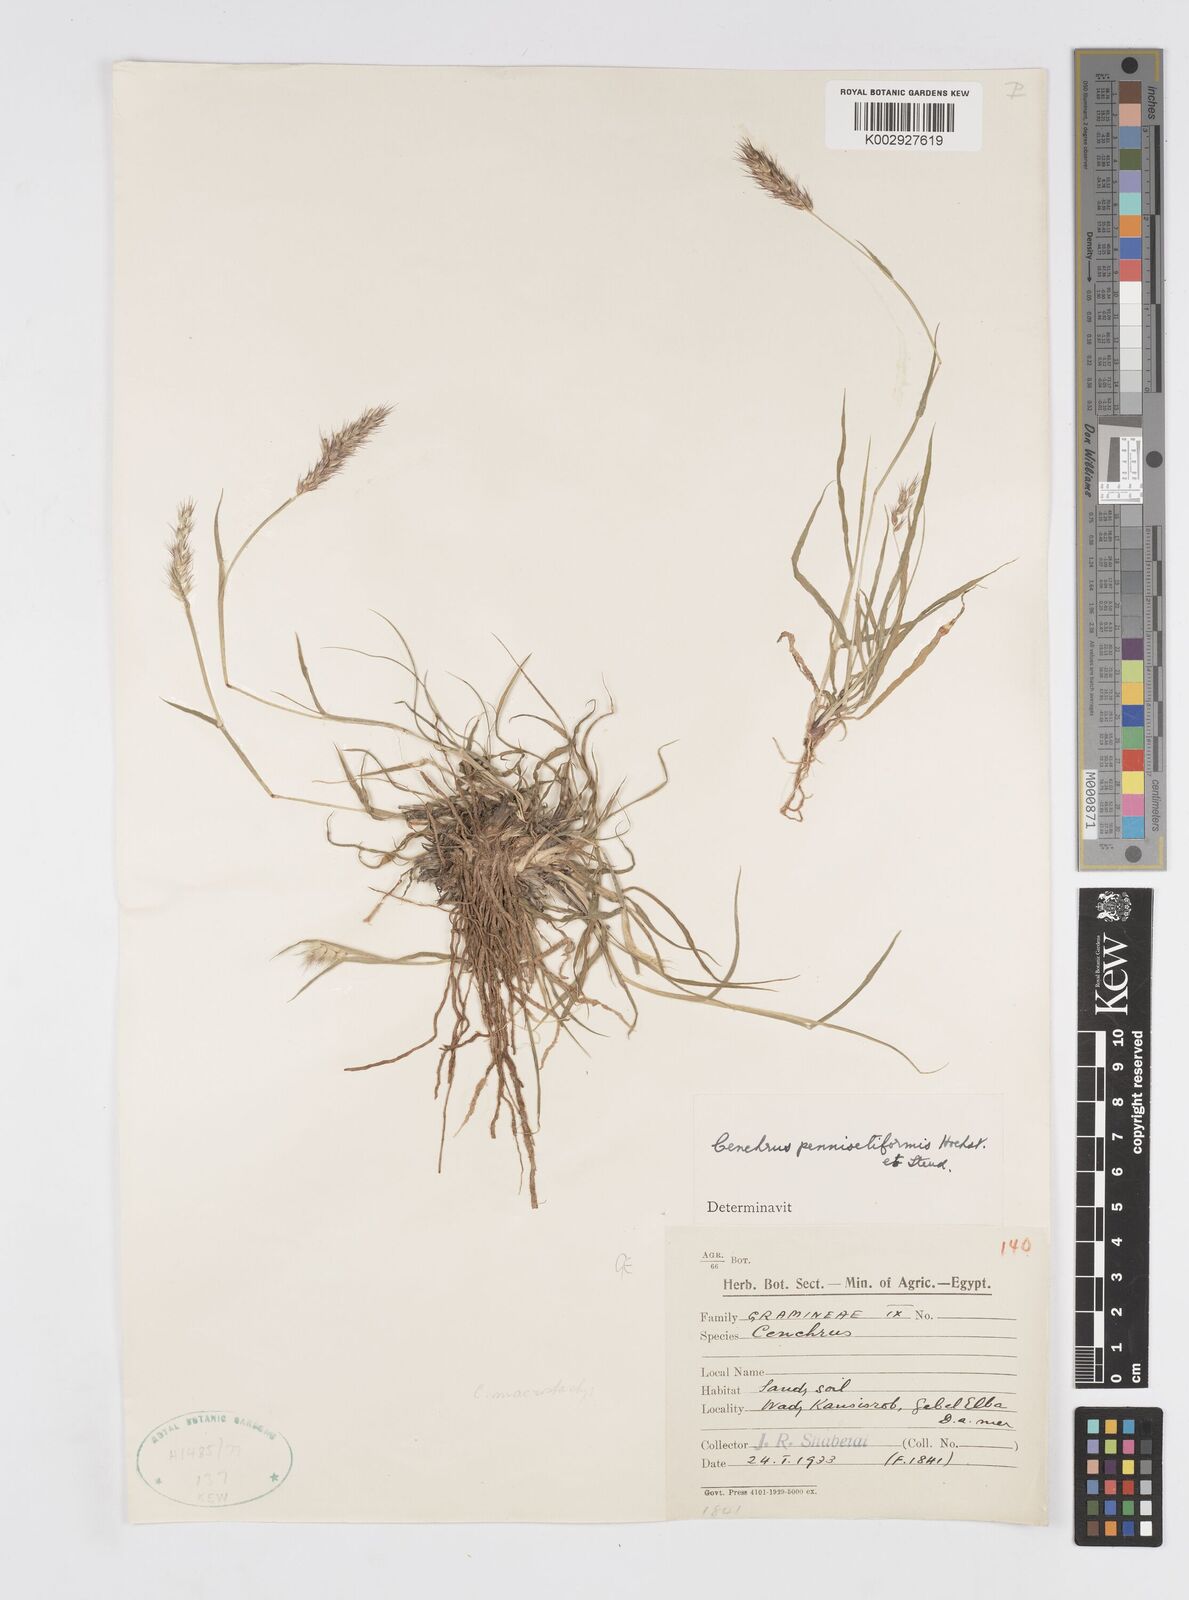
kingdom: Plantae
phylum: Tracheophyta
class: Liliopsida
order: Poales
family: Poaceae
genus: Cenchrus
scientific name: Cenchrus pennisetiformis
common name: Cloncurry
